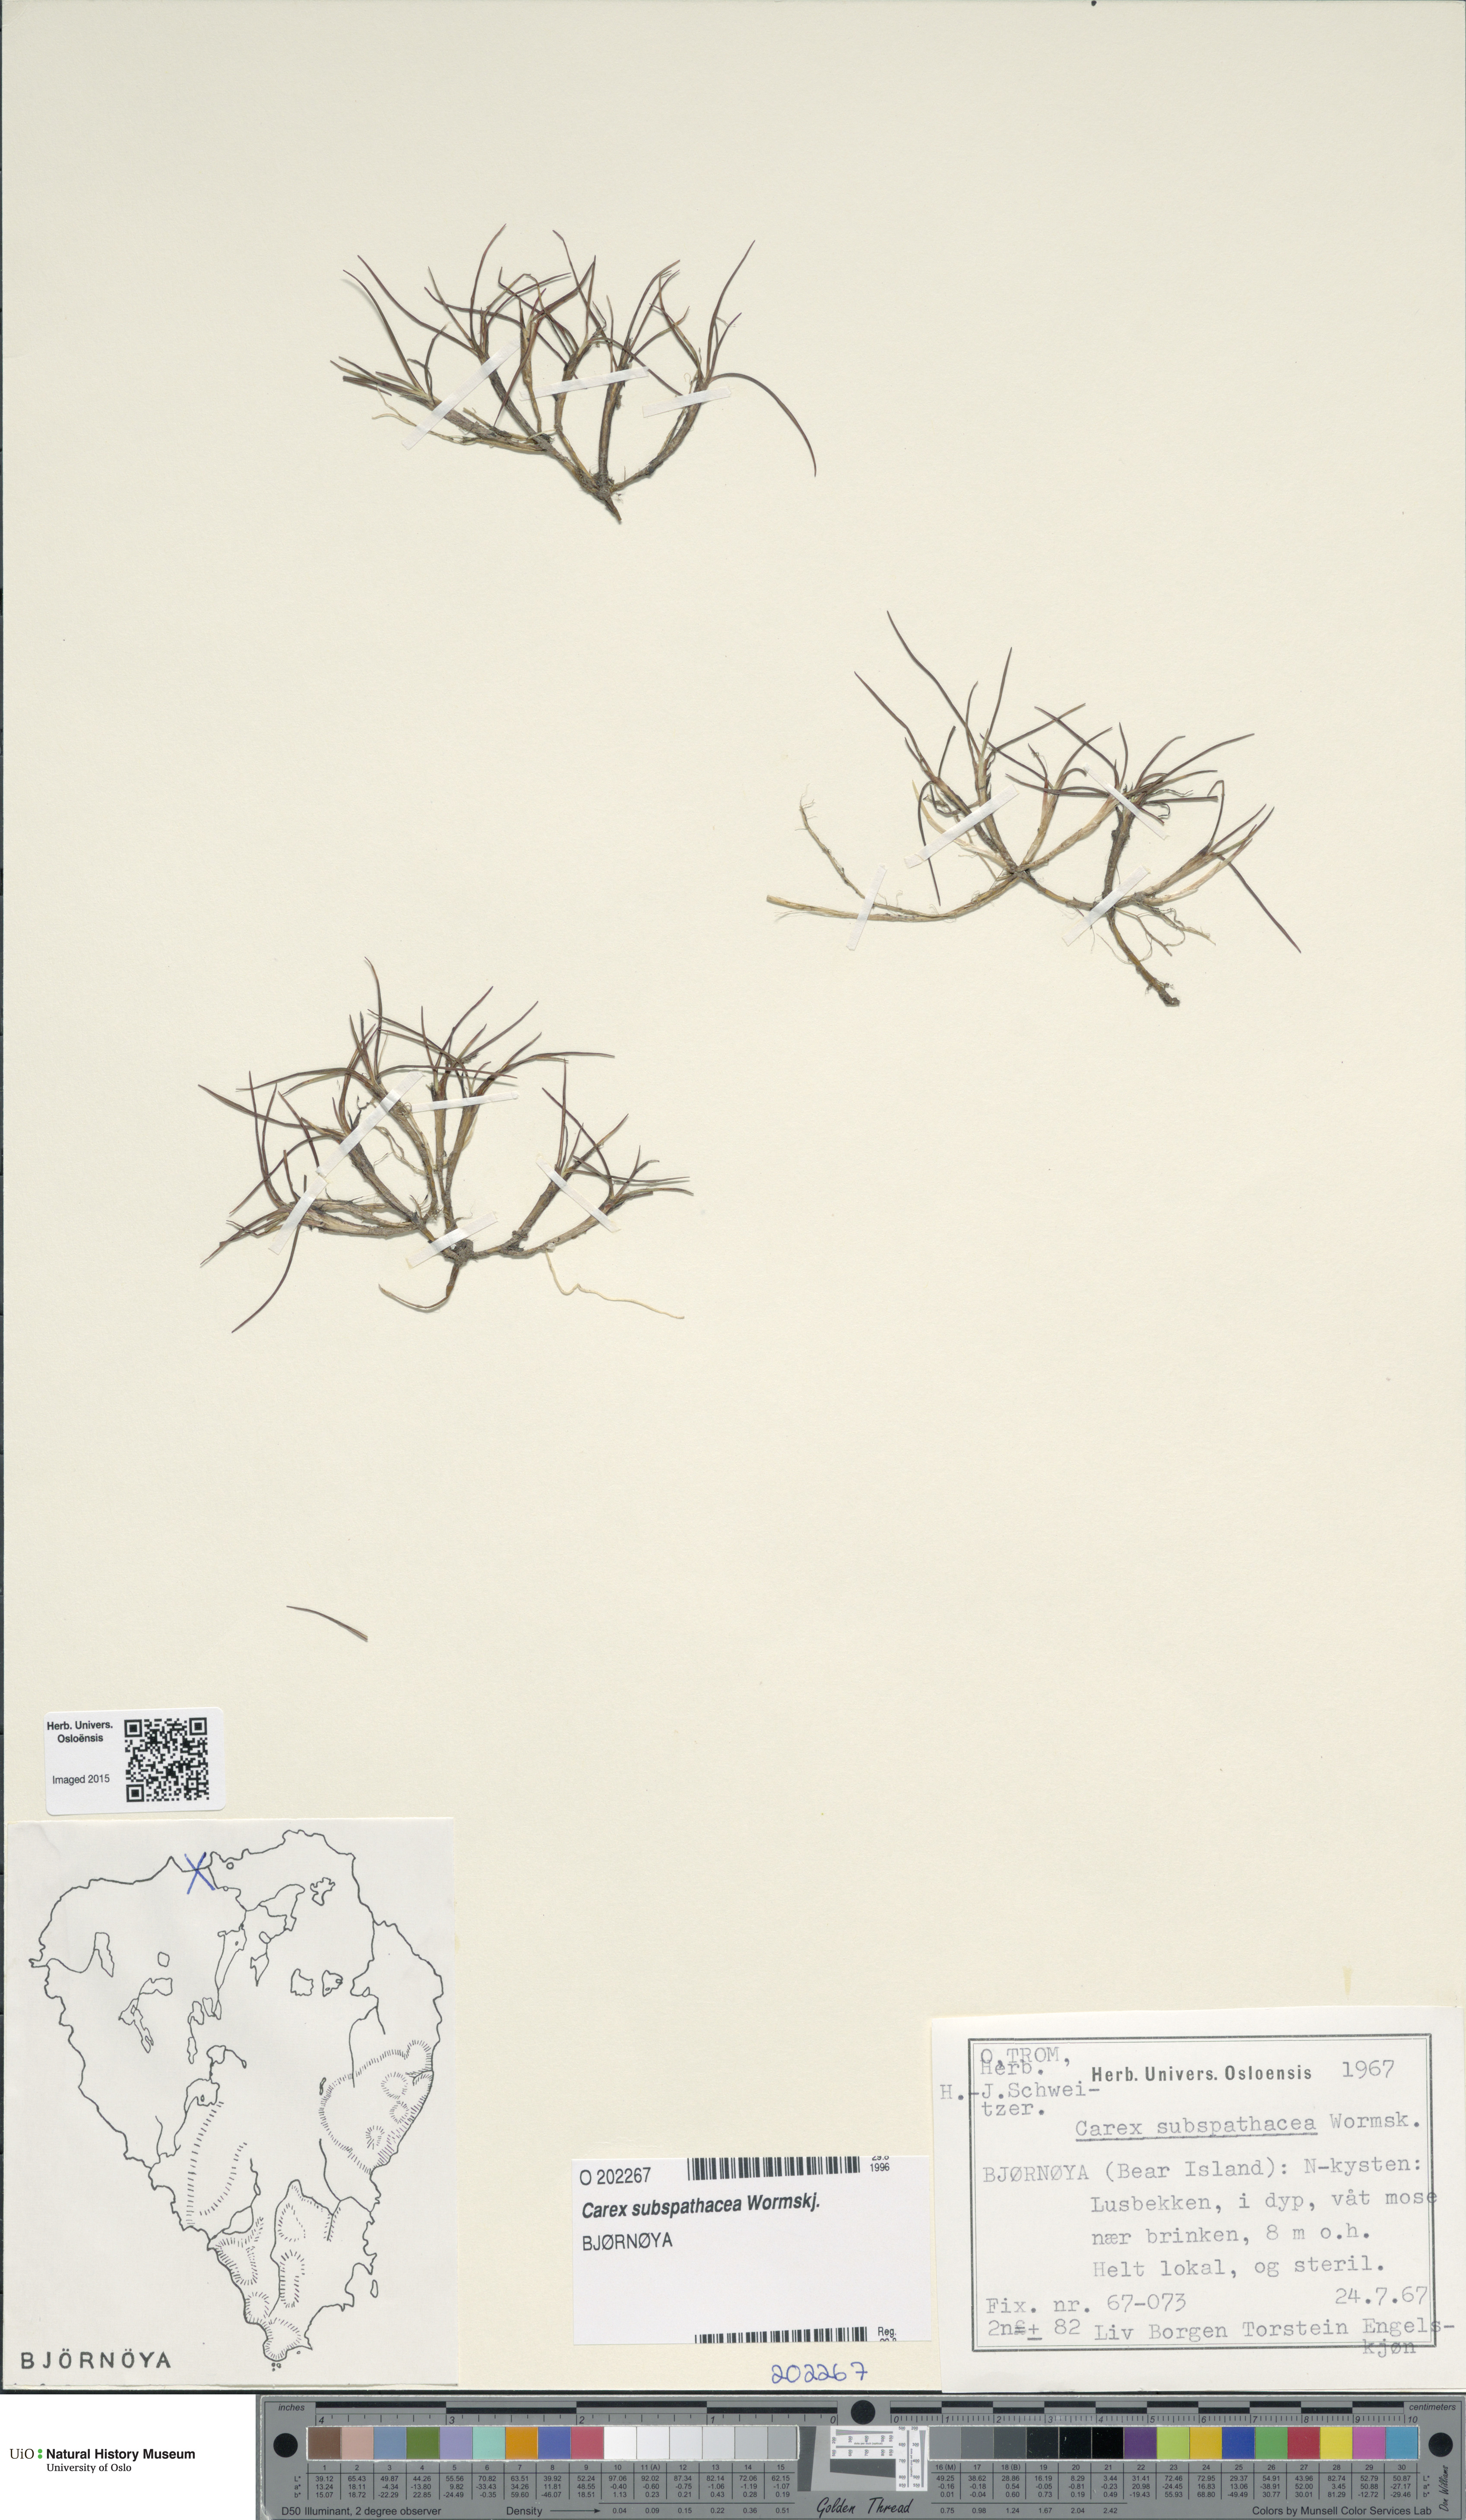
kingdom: Plantae
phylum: Tracheophyta
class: Liliopsida
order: Poales
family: Cyperaceae
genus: Carex
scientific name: Carex subspathacea
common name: Hoppner's sedge
